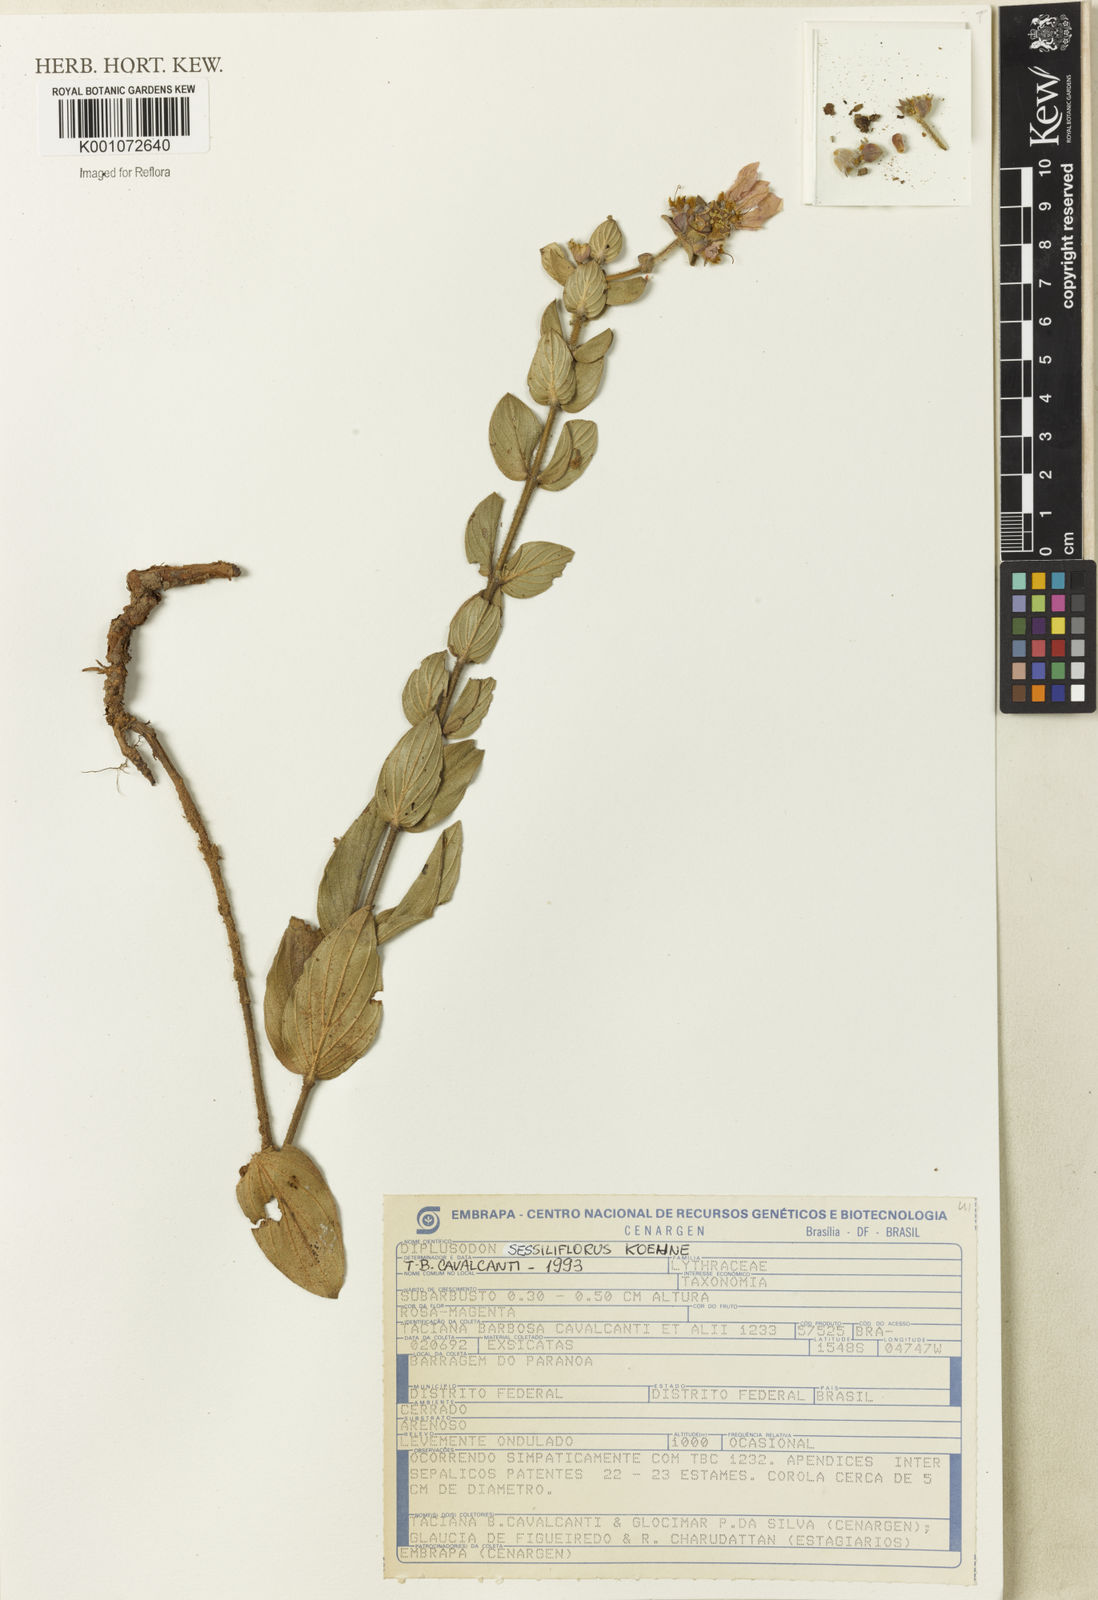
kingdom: Plantae
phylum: Tracheophyta
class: Magnoliopsida
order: Myrtales
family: Lythraceae
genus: Diplusodon
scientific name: Diplusodon sessiliflorus
